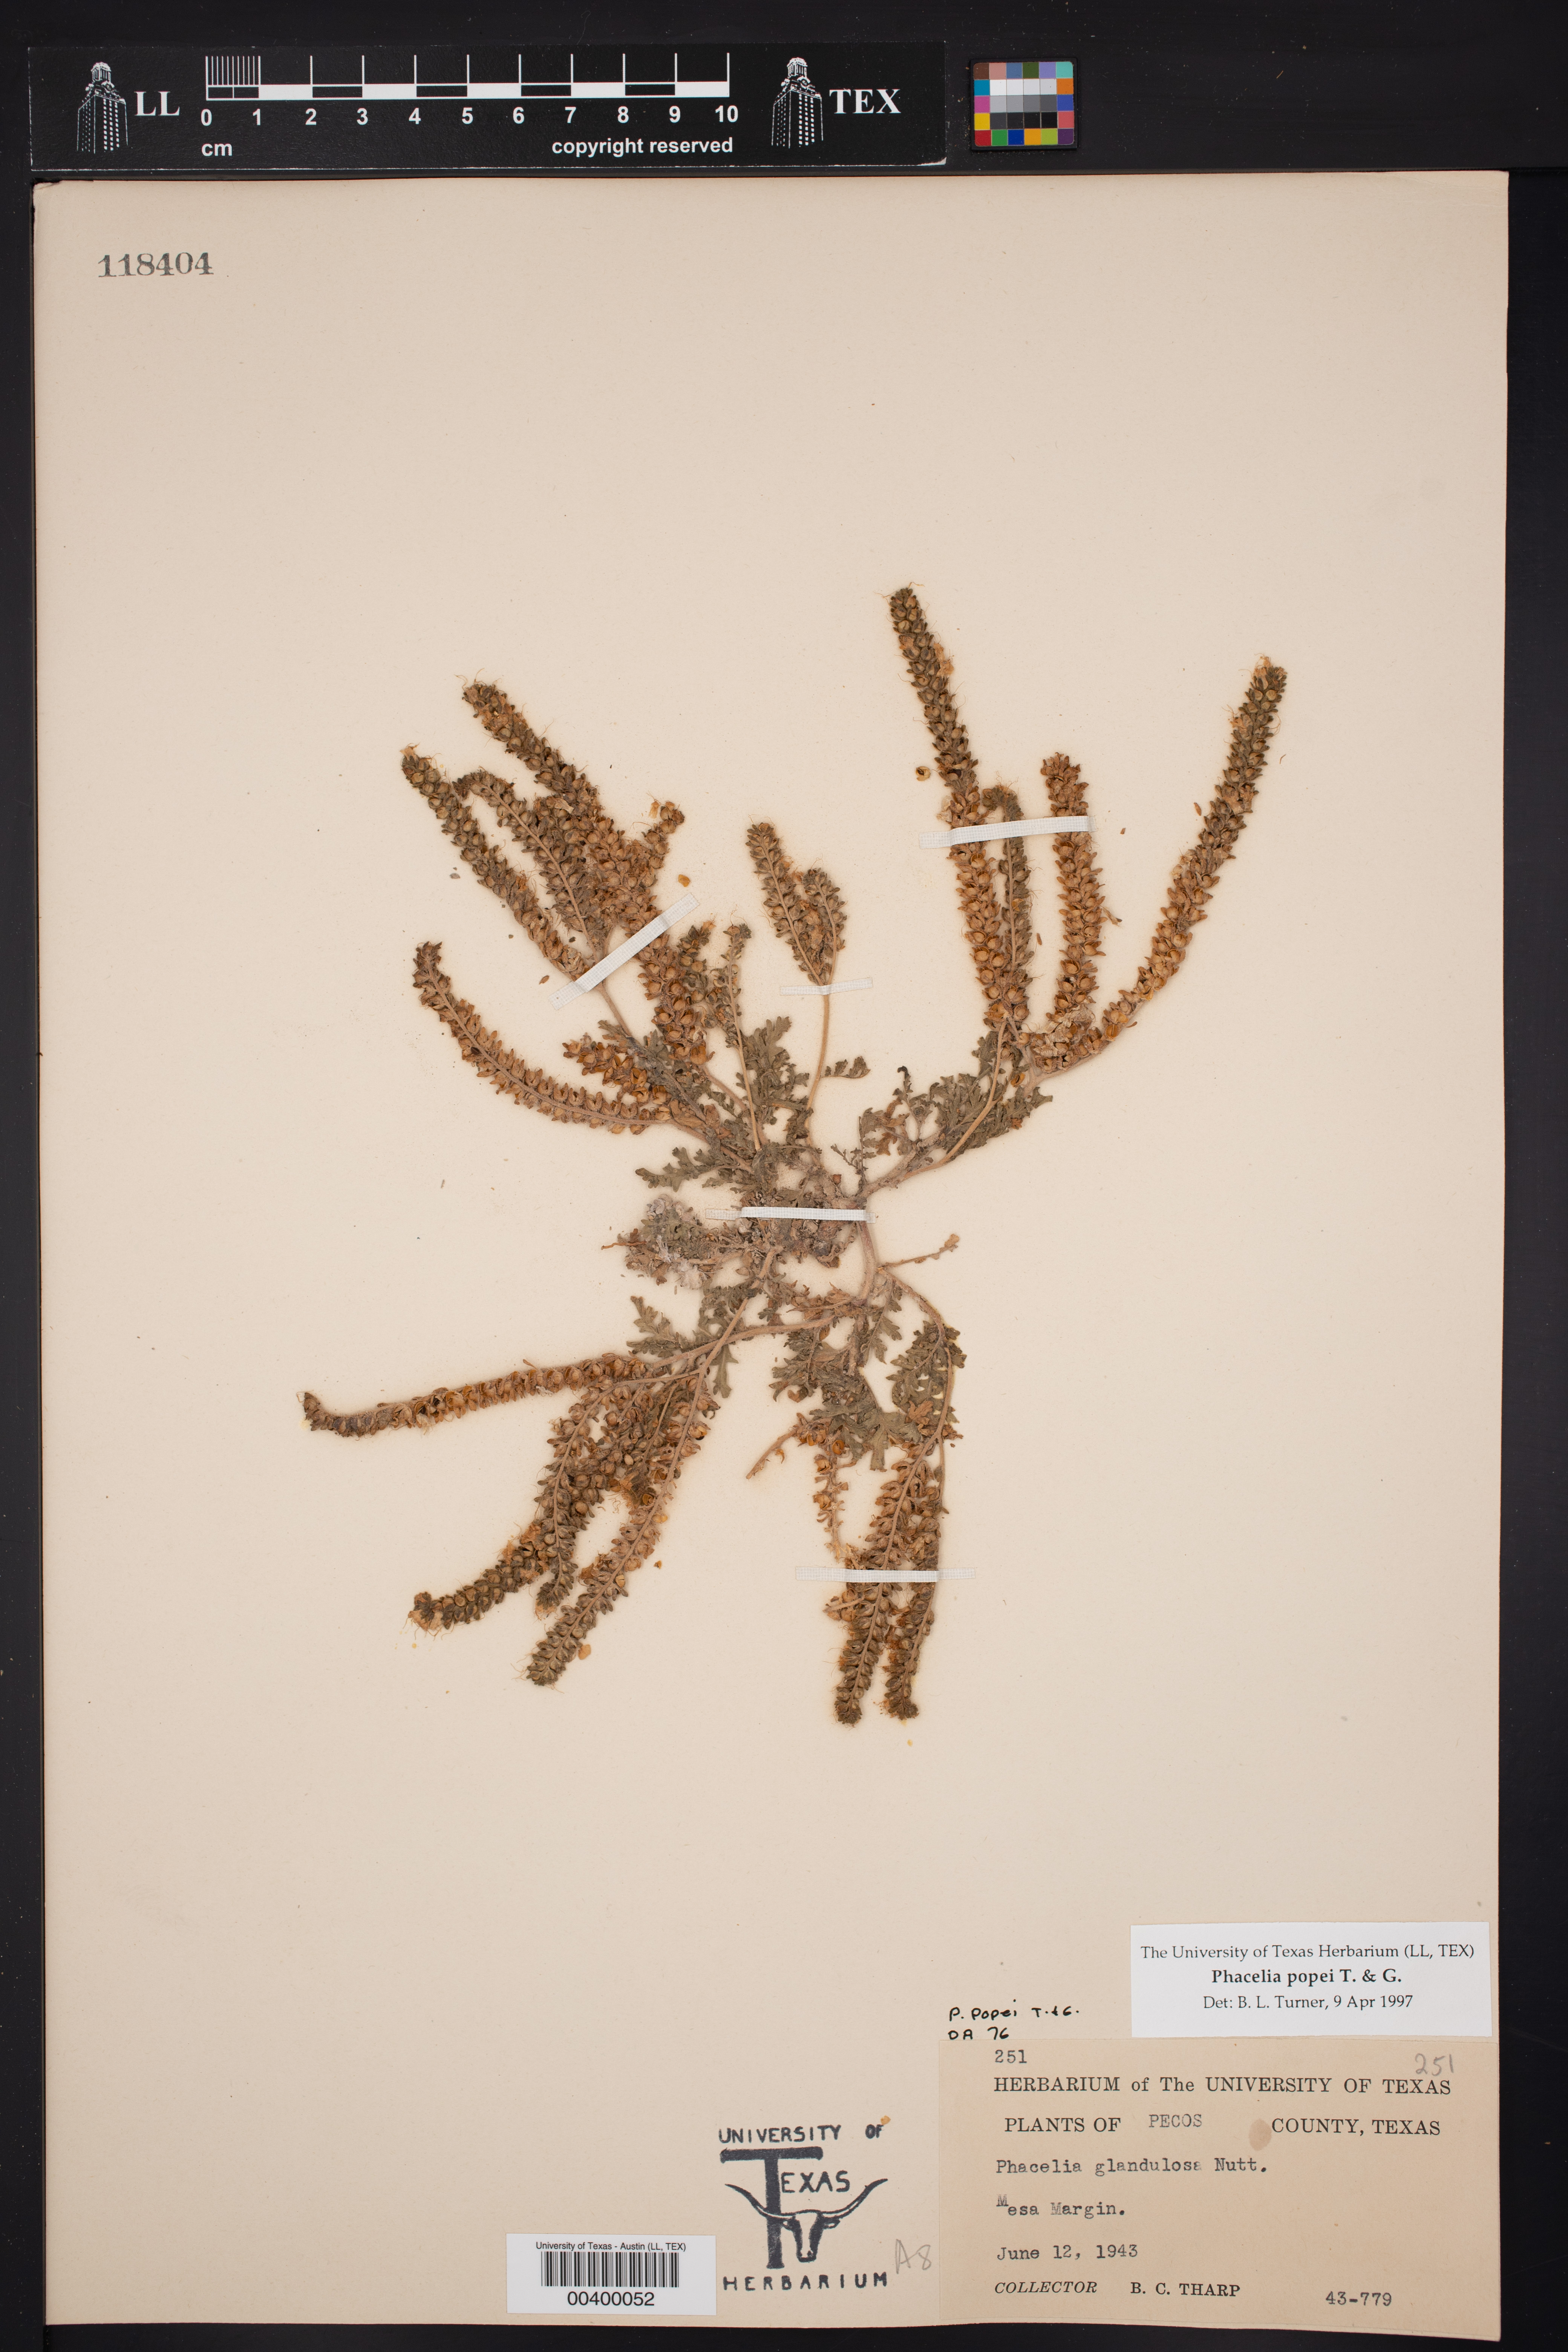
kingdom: Plantae
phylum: Tracheophyta
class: Magnoliopsida
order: Boraginales
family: Hydrophyllaceae
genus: Phacelia
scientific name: Phacelia popei
